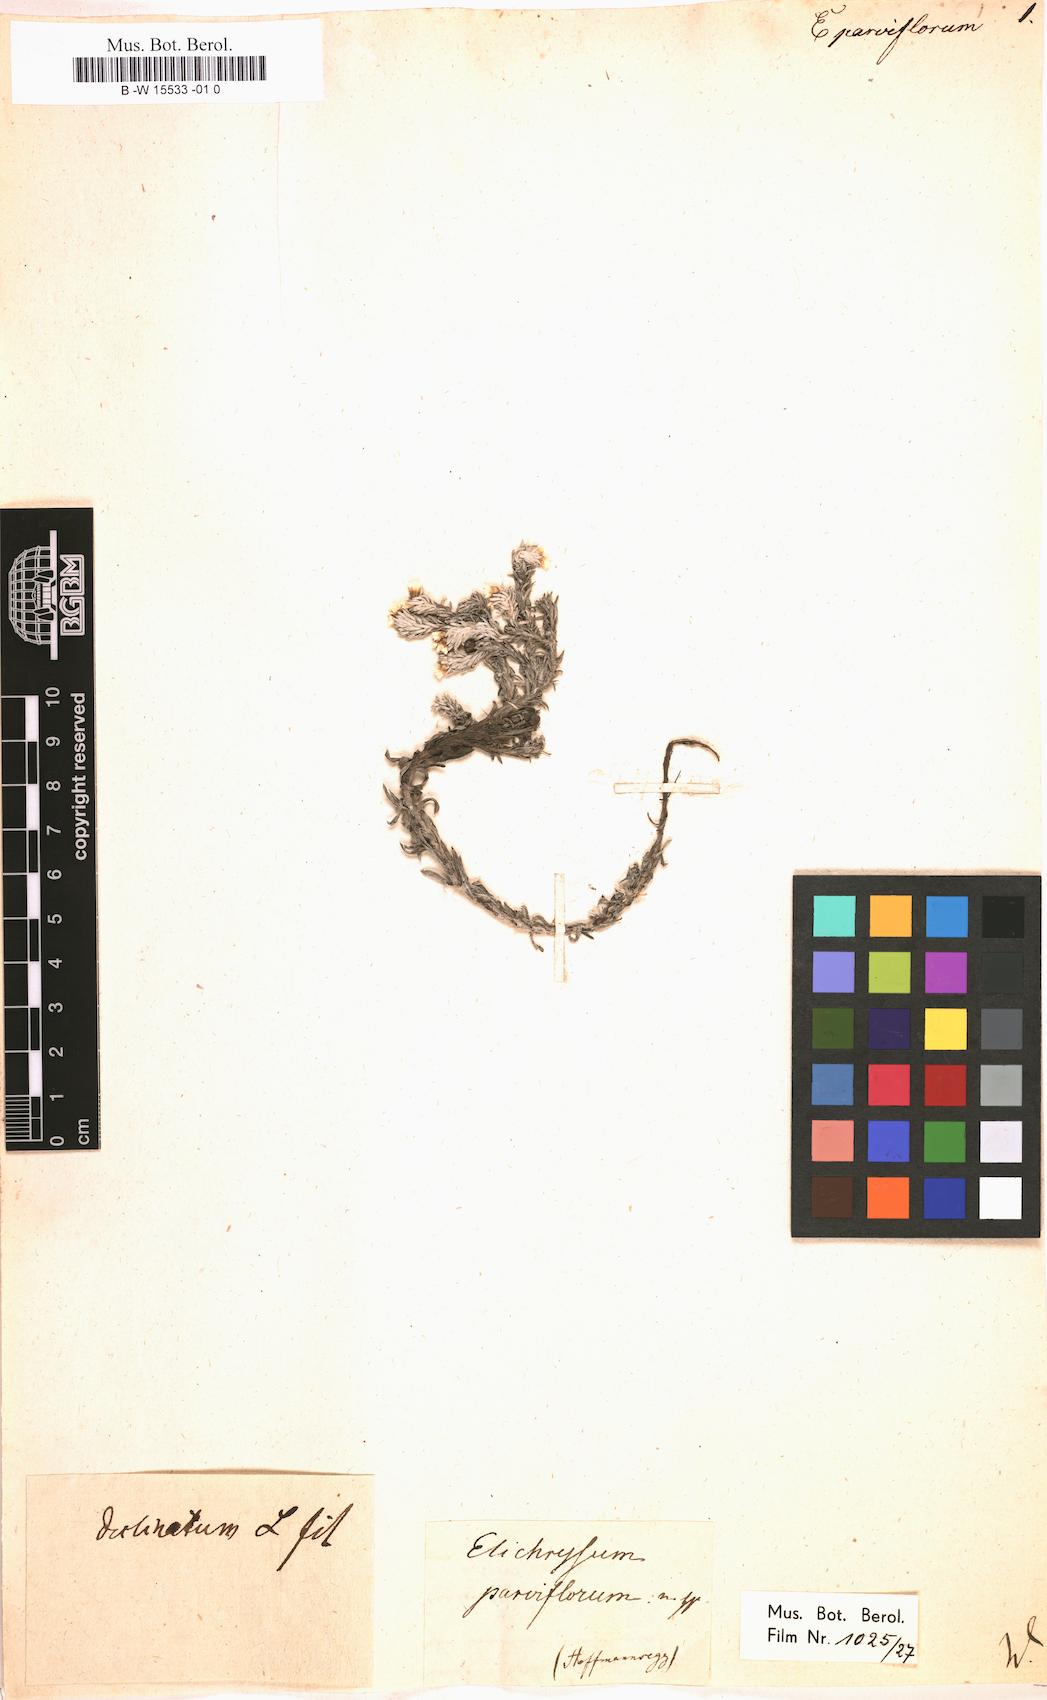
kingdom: Plantae
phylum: Tracheophyta
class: Magnoliopsida
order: Asterales
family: Asteraceae
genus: Helichrysum
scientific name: Helichrysum
